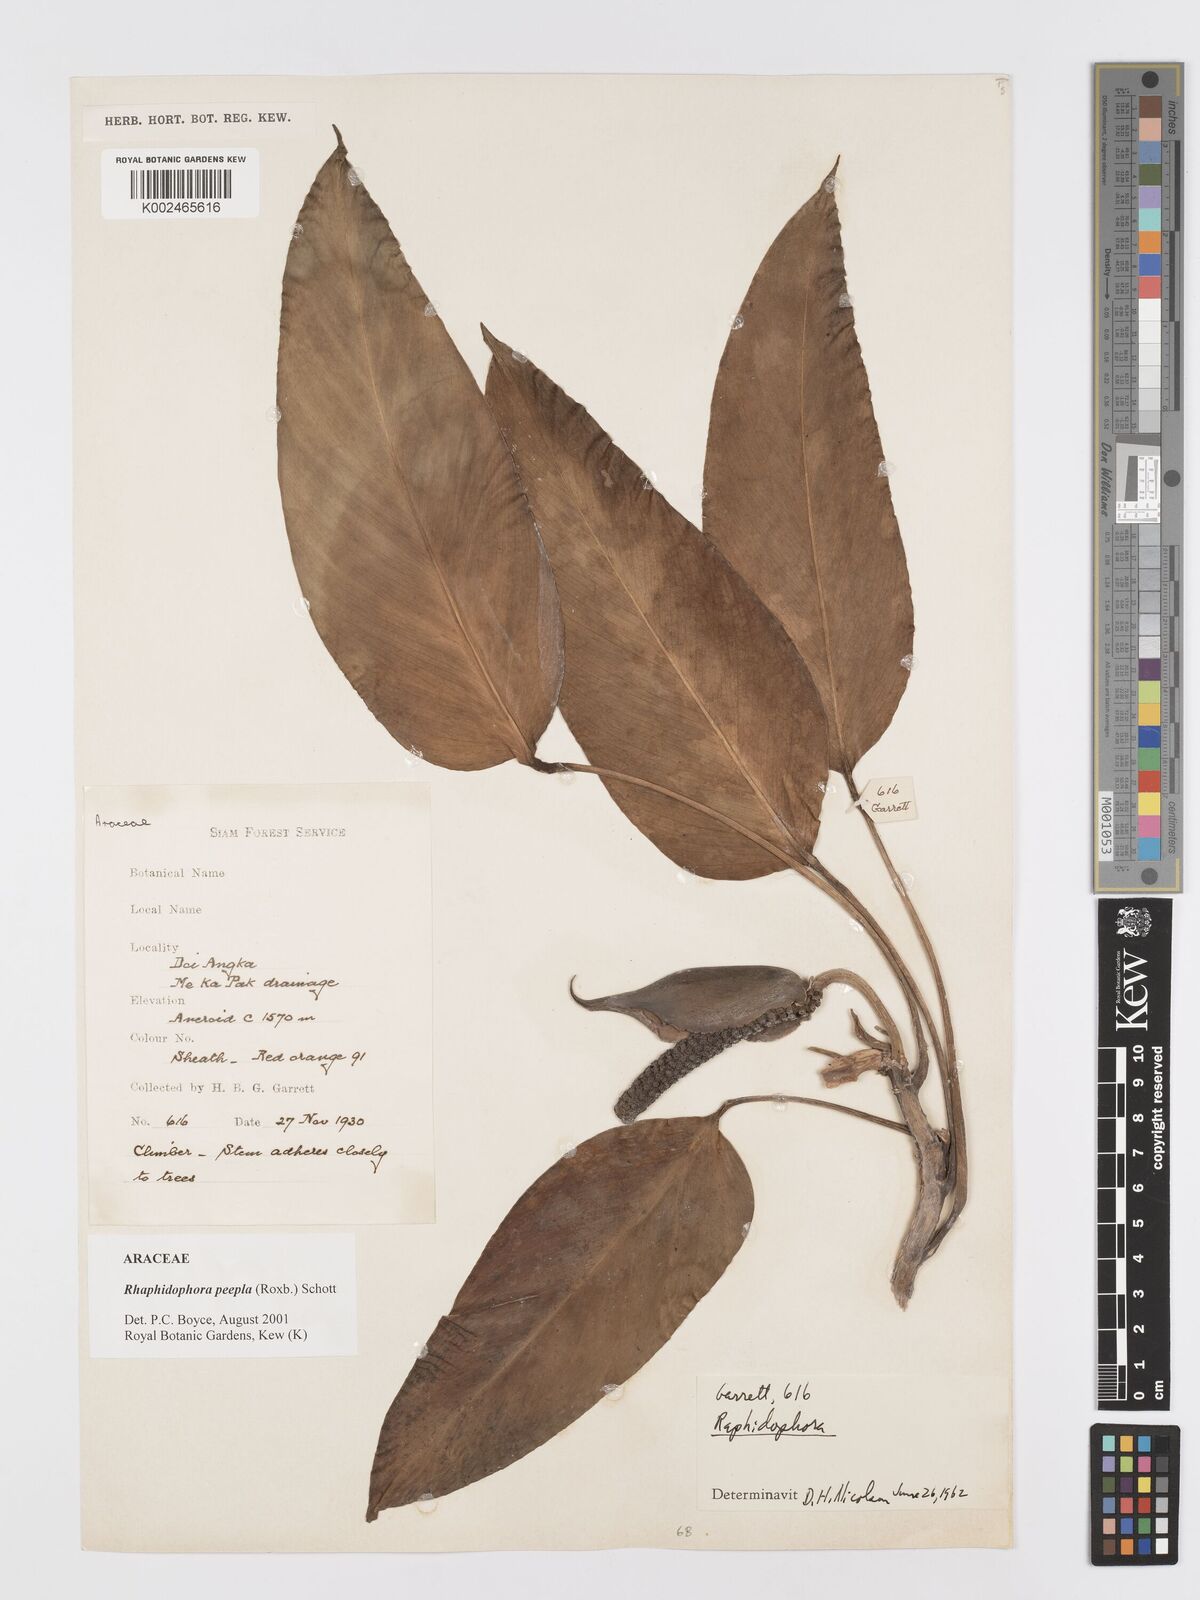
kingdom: Plantae
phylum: Tracheophyta
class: Liliopsida
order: Alismatales
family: Araceae
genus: Rhaphidophora
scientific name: Rhaphidophora peepla
